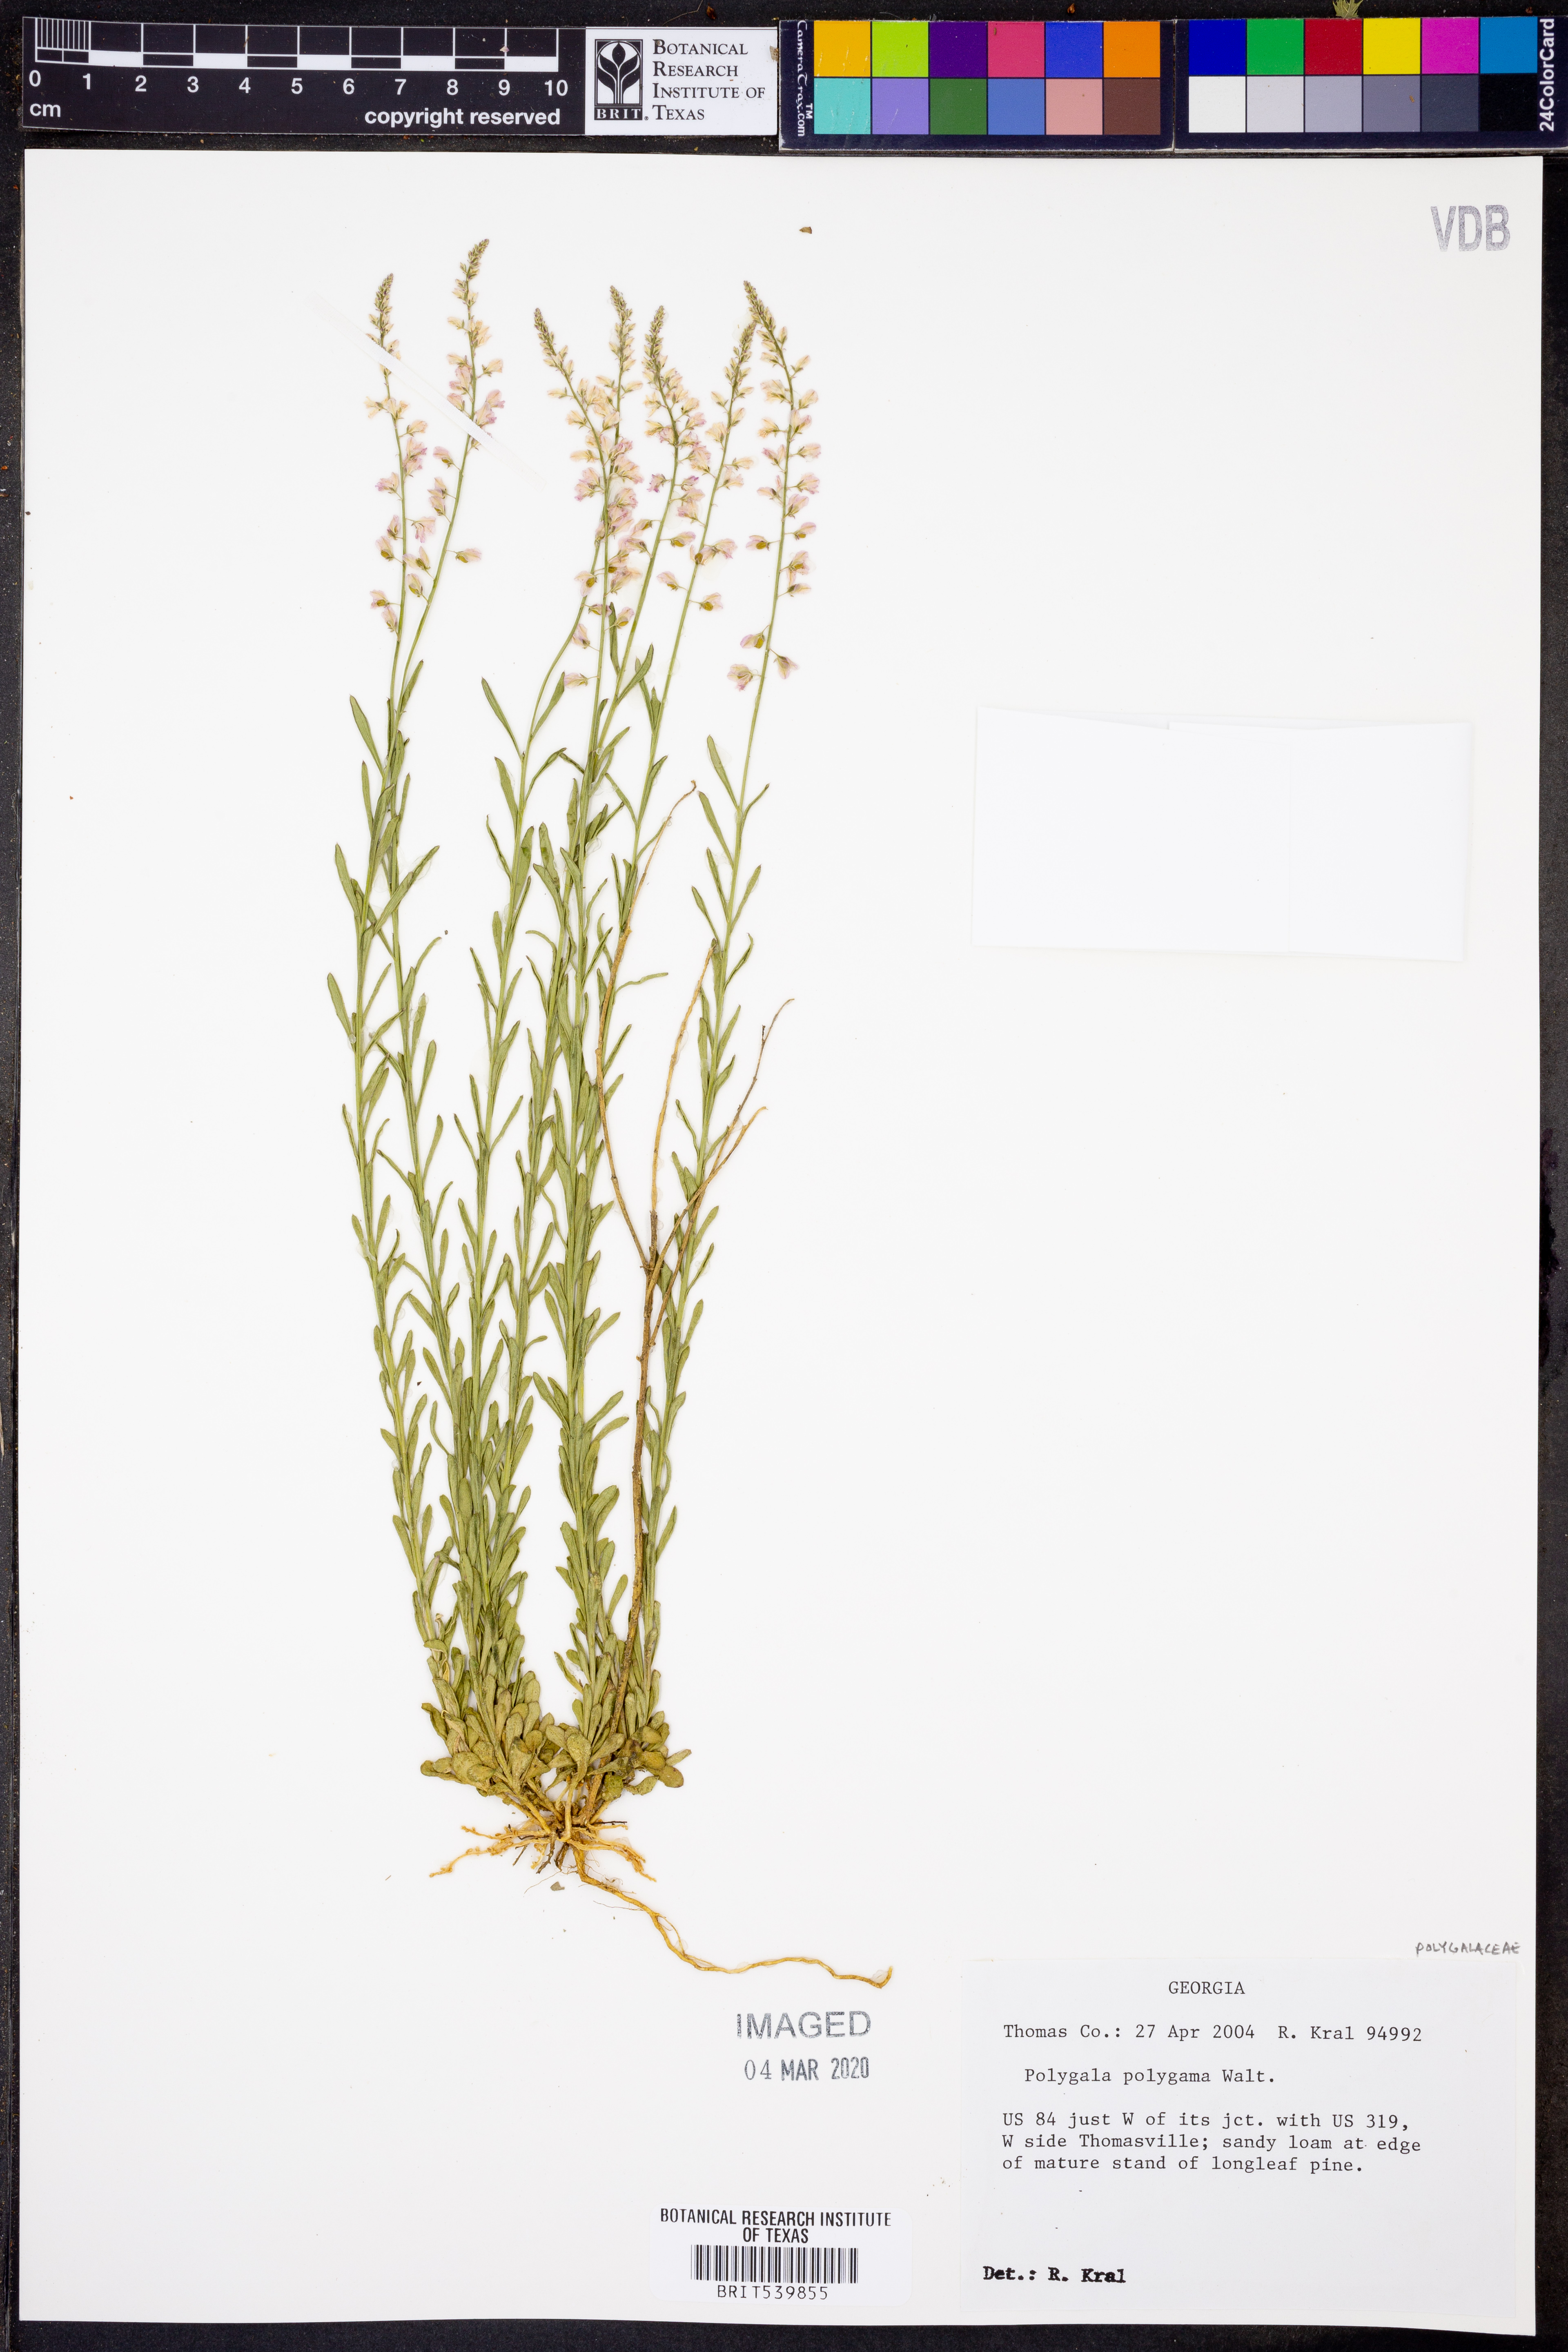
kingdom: Plantae
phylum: Tracheophyta
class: Magnoliopsida
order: Fabales
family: Polygalaceae
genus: Polygala
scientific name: Polygala polygama
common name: Bitter milkwort
